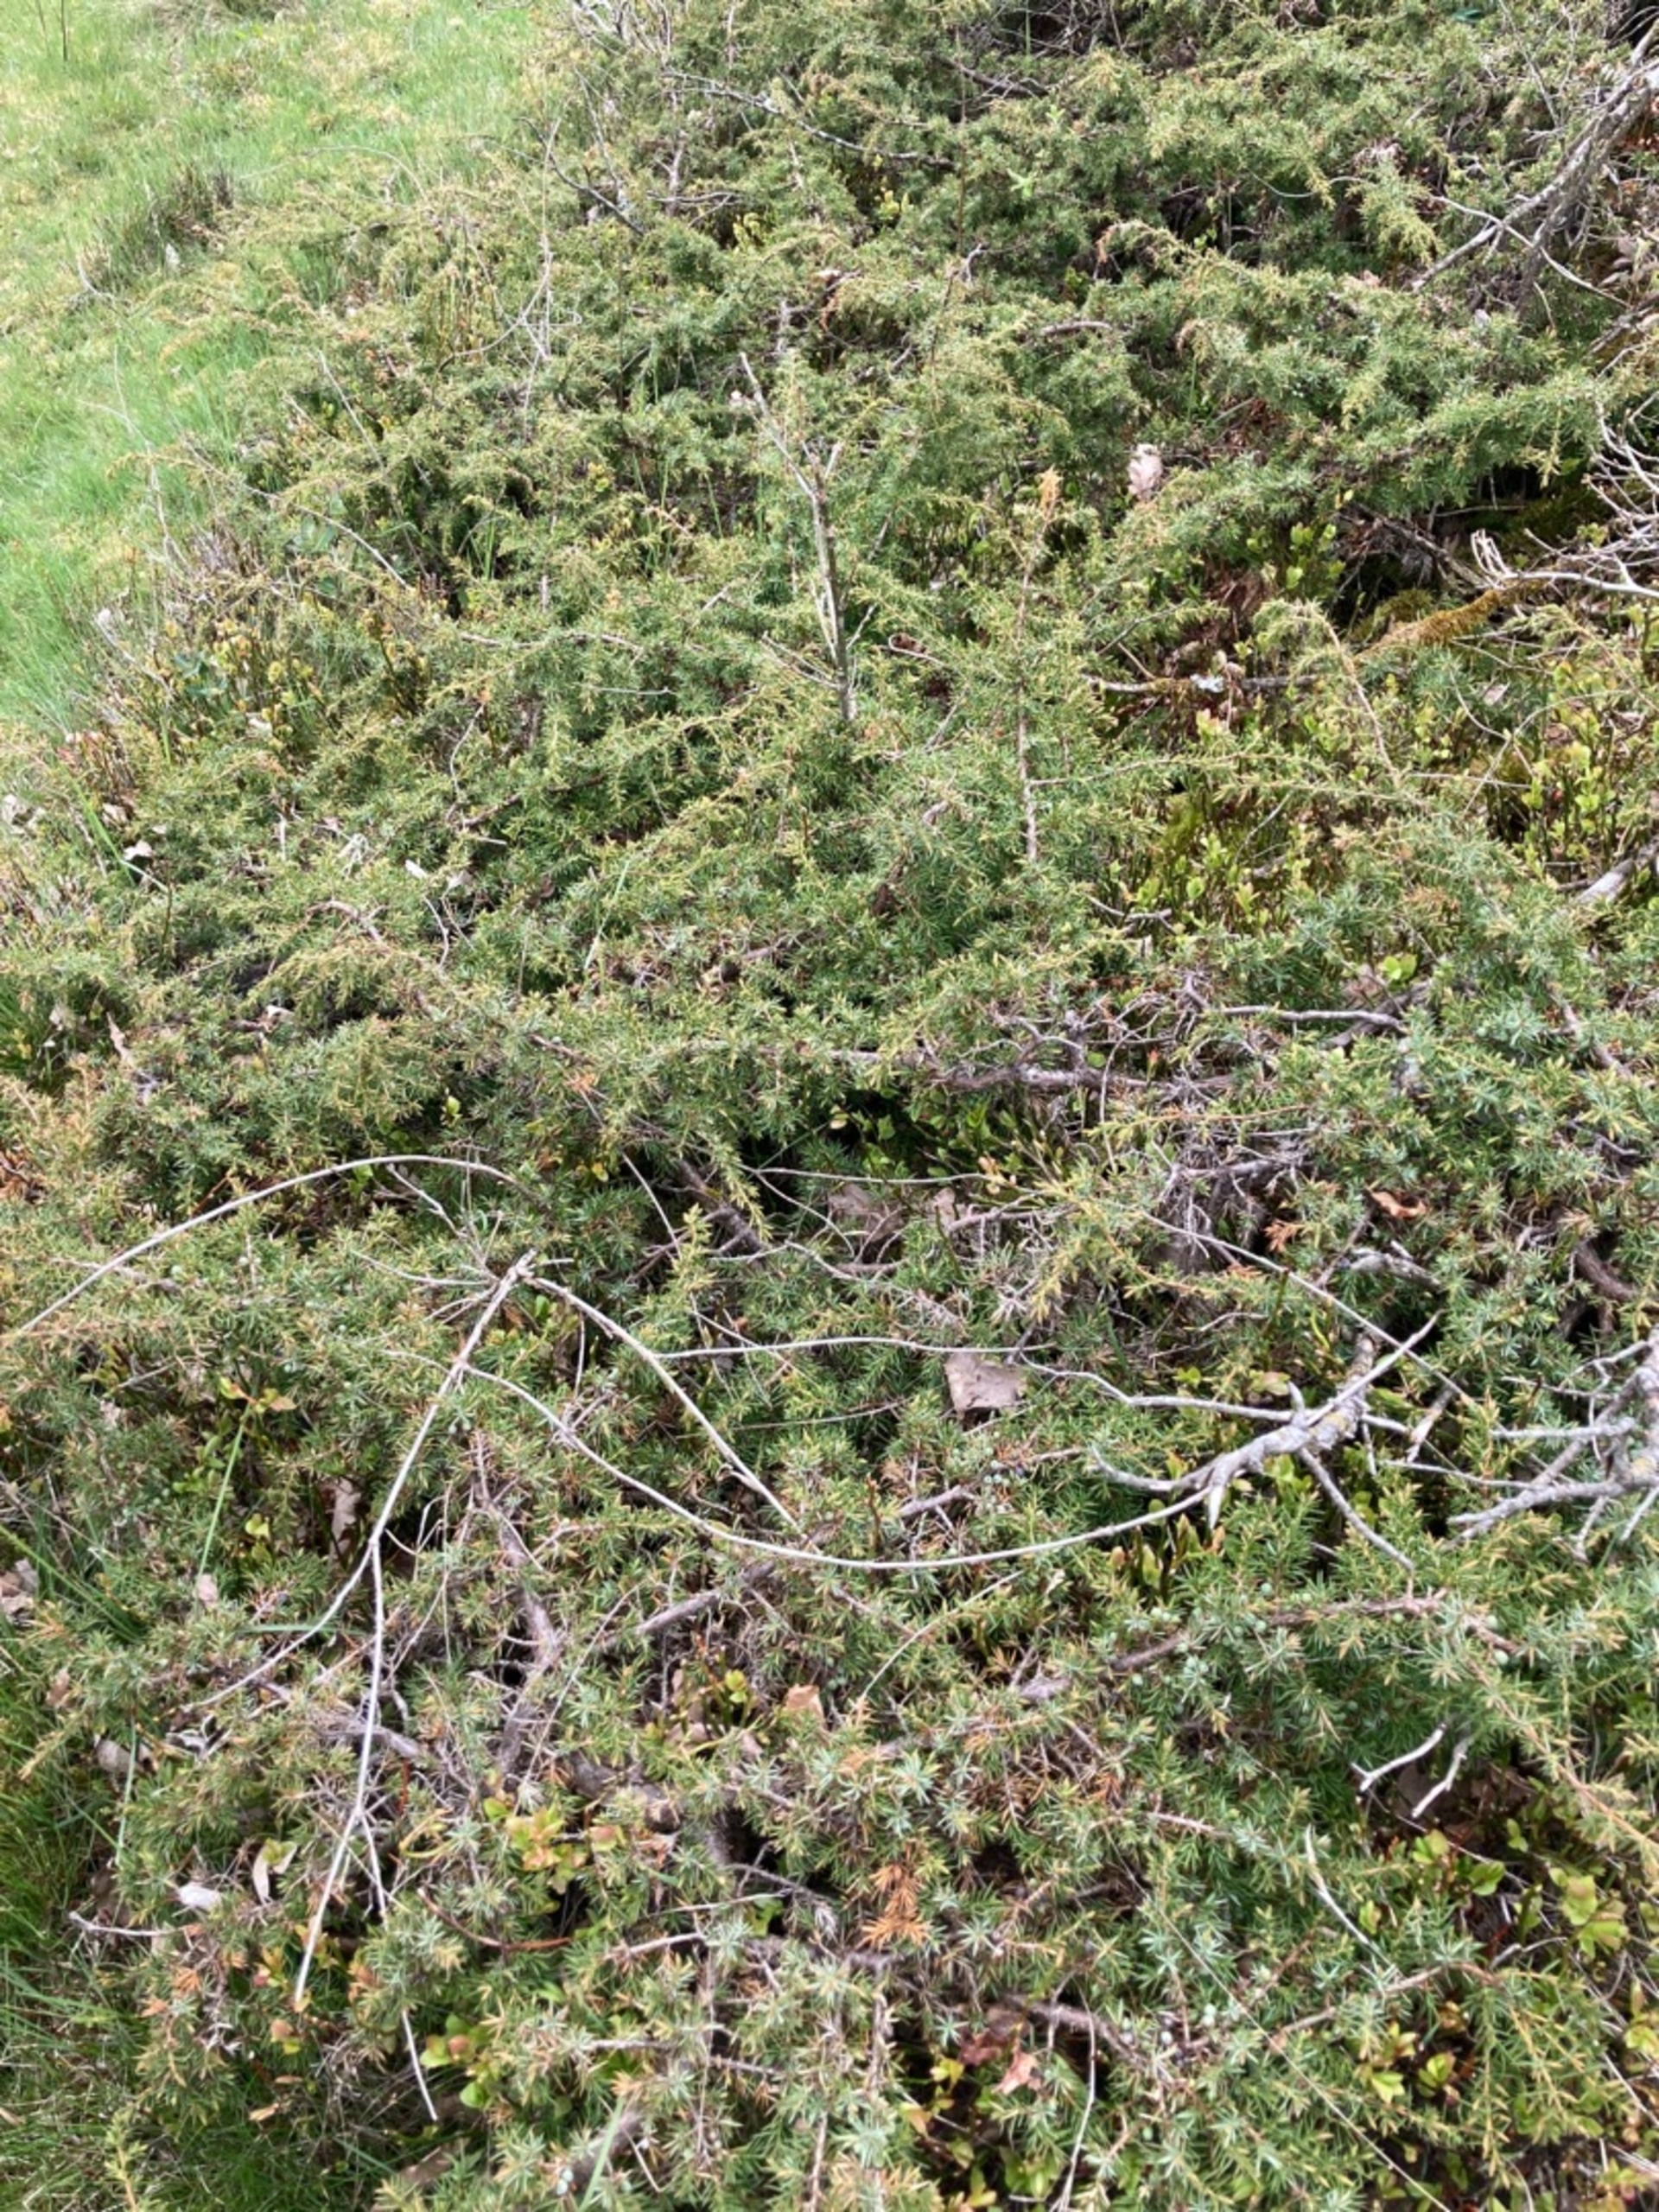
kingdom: Plantae
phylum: Tracheophyta
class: Pinopsida
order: Pinales
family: Cupressaceae
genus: Juniperus
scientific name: Juniperus communis
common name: Almindelig ene
